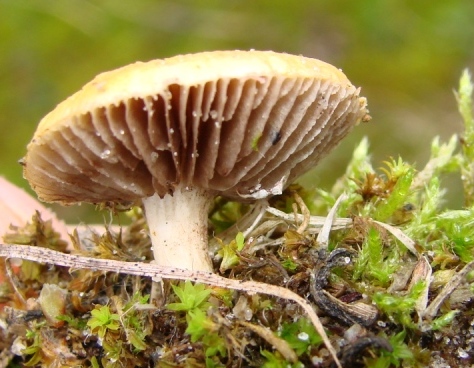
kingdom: Fungi
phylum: Basidiomycota
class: Agaricomycetes
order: Agaricales
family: Hymenogastraceae
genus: Psilocybe
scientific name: Psilocybe coronilla
